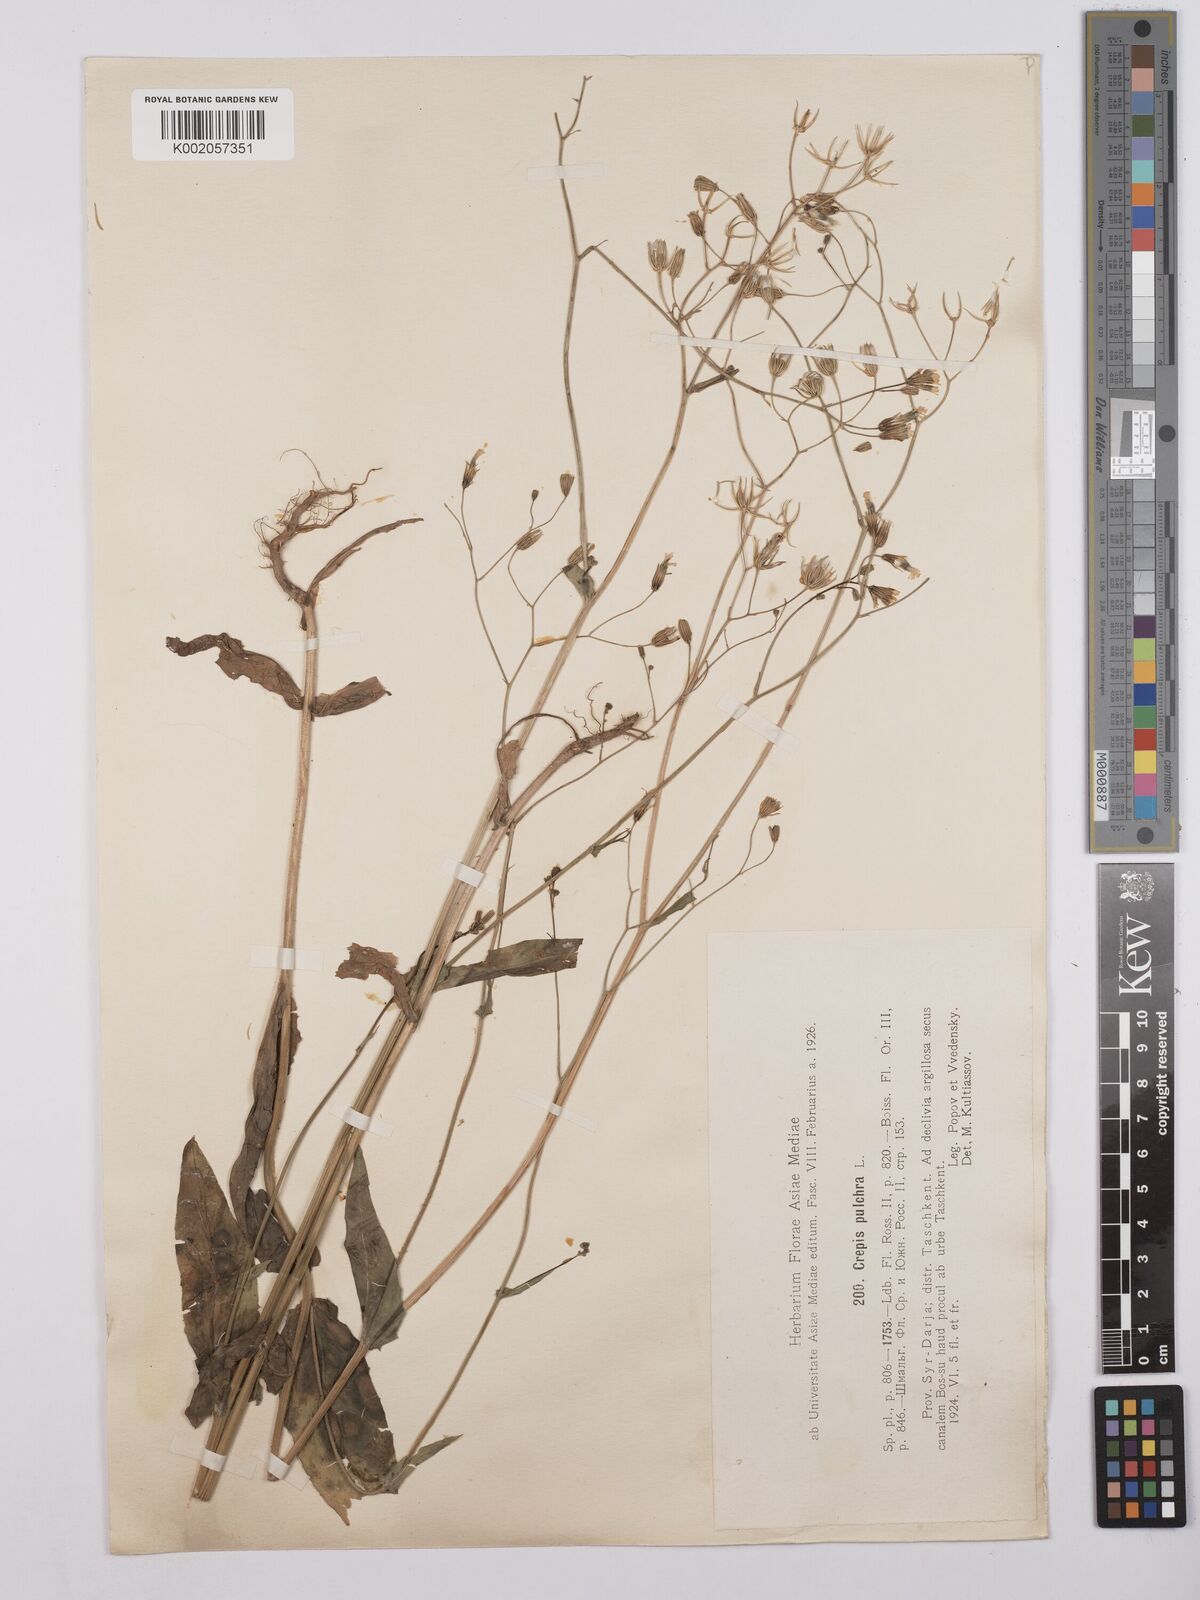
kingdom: Plantae
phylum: Tracheophyta
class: Magnoliopsida
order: Asterales
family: Asteraceae
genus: Crepis
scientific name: Crepis pulchra
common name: Hawk's-beard
